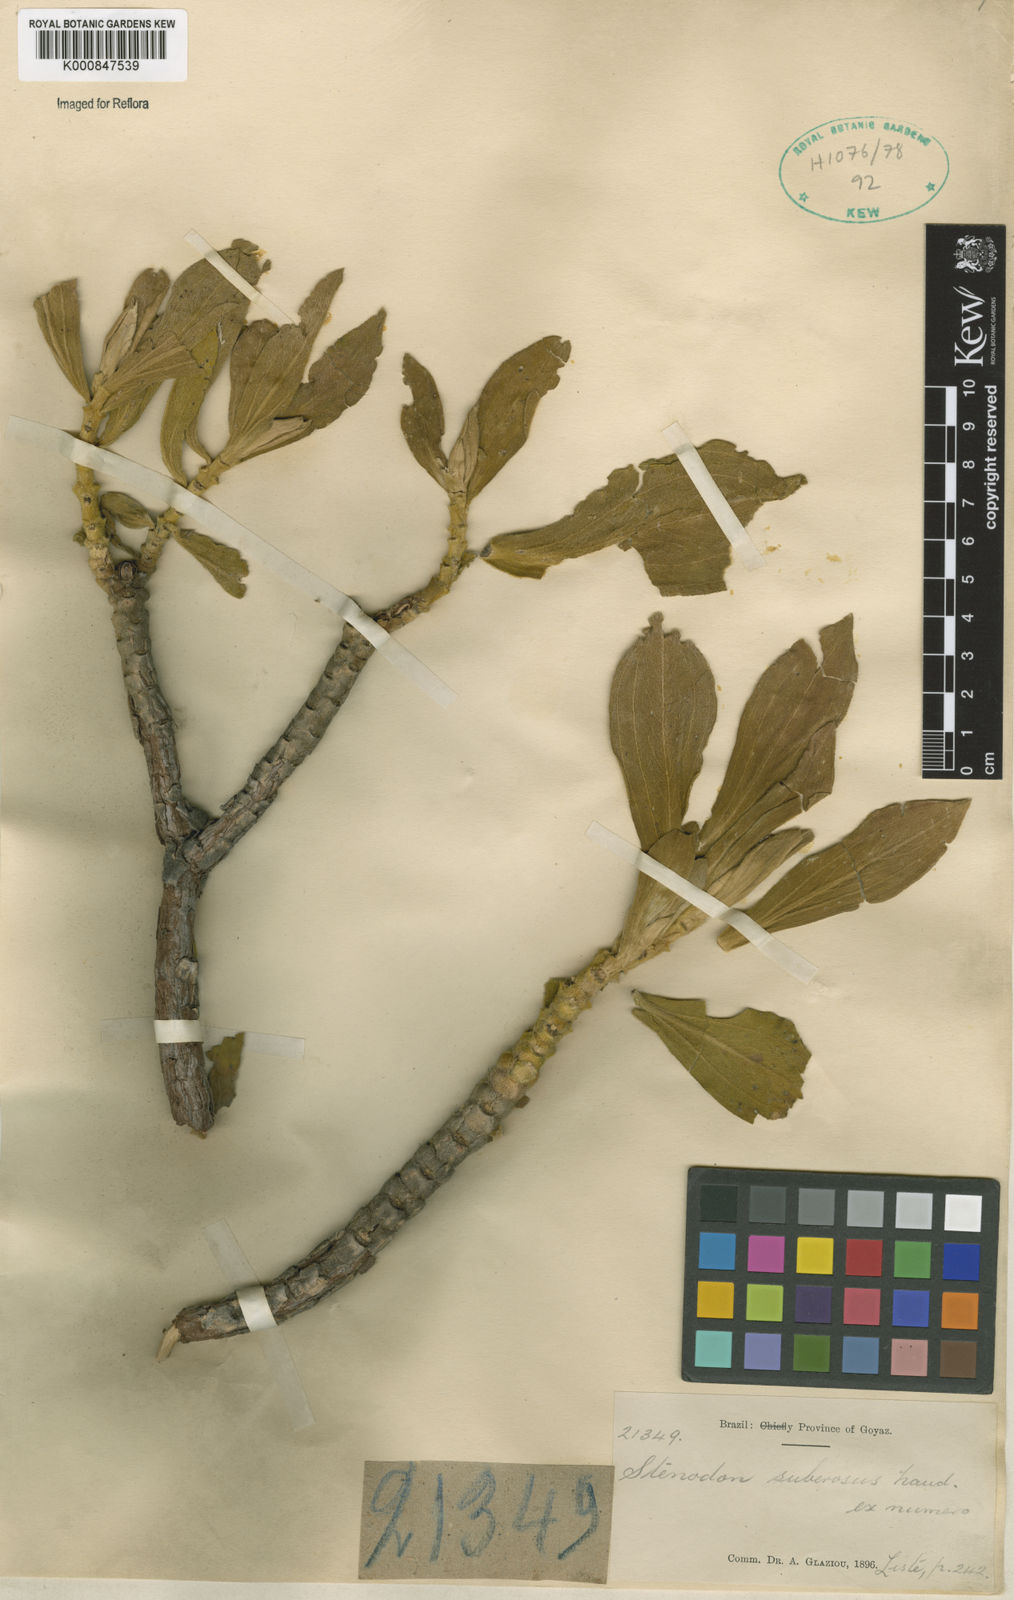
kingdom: Plantae
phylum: Tracheophyta
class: Magnoliopsida
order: Myrtales
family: Melastomataceae
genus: Microlicia
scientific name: Microlicia suberosa
